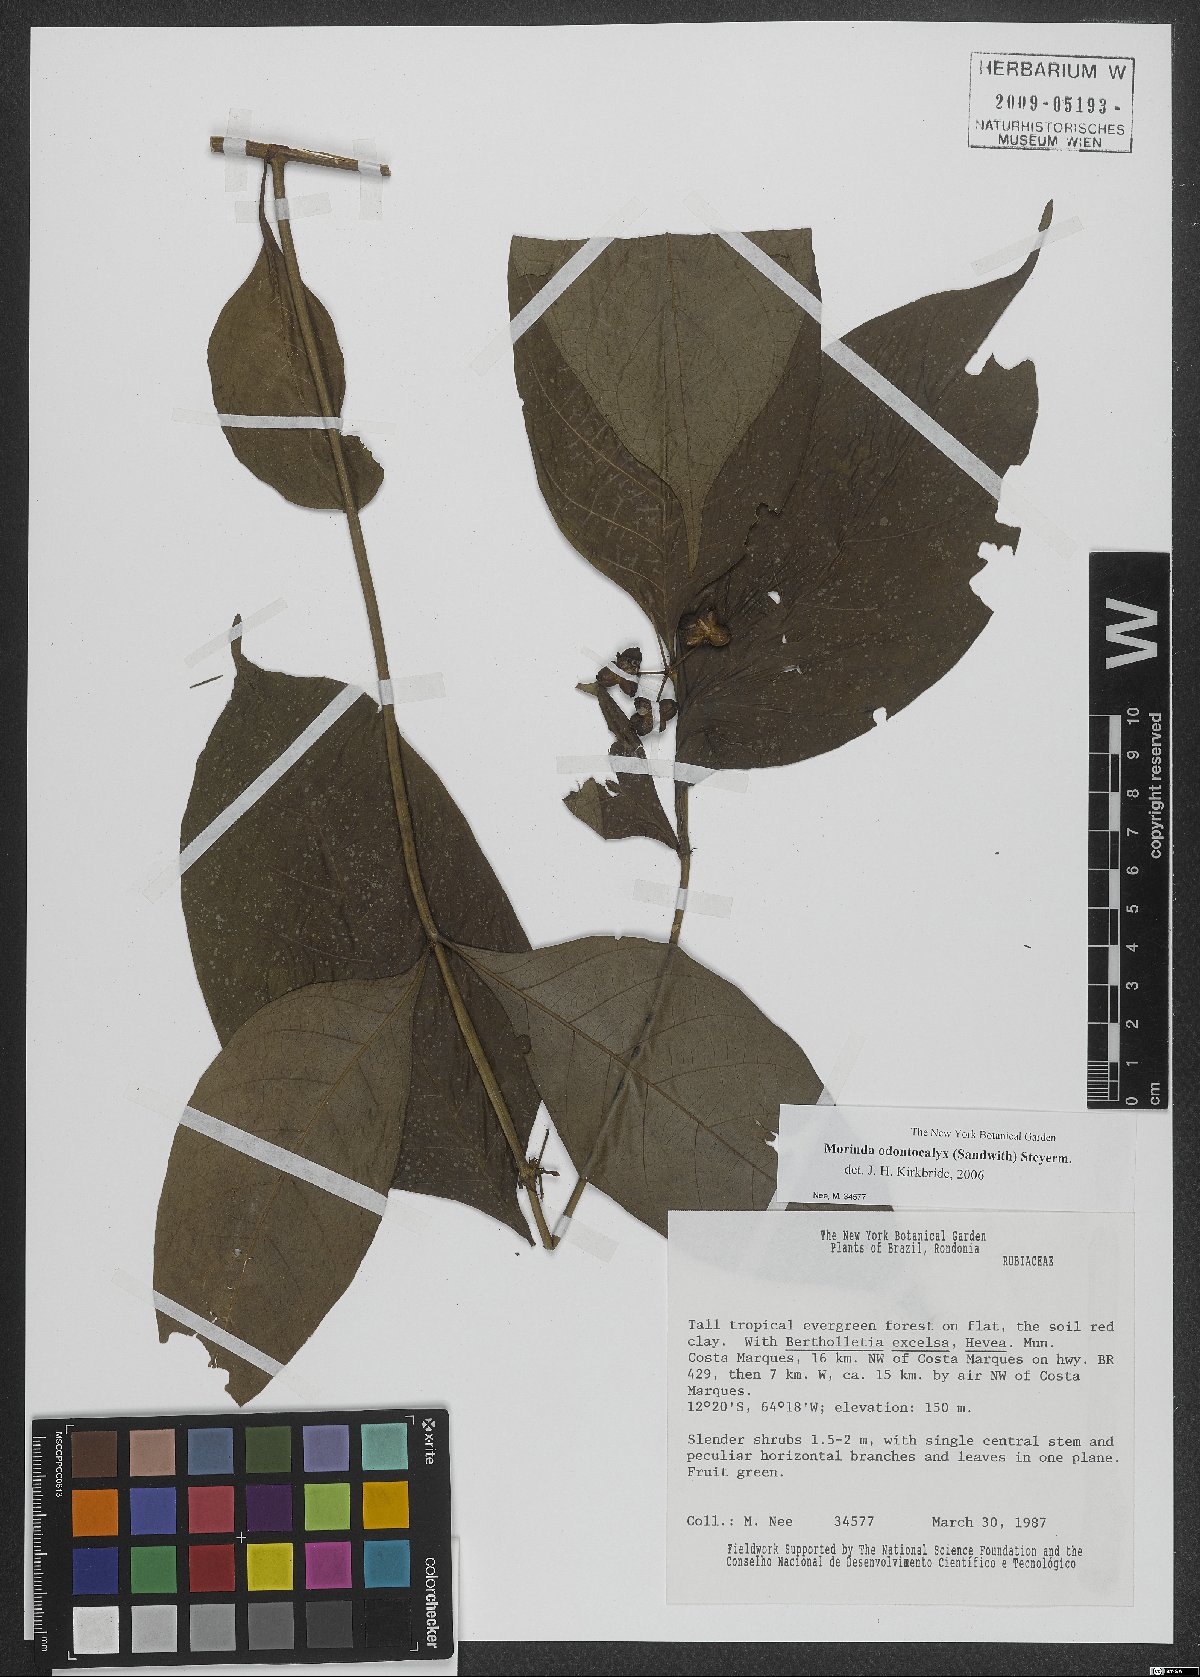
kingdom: Plantae
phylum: Tracheophyta
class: Magnoliopsida
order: Gentianales
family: Rubiaceae
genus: Appunia
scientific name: Appunia odontocalyx
